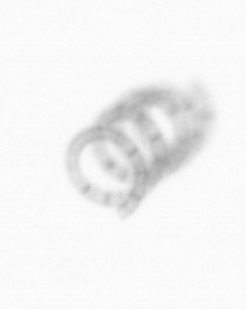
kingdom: Chromista
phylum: Ochrophyta
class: Bacillariophyceae
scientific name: Bacillariophyceae
